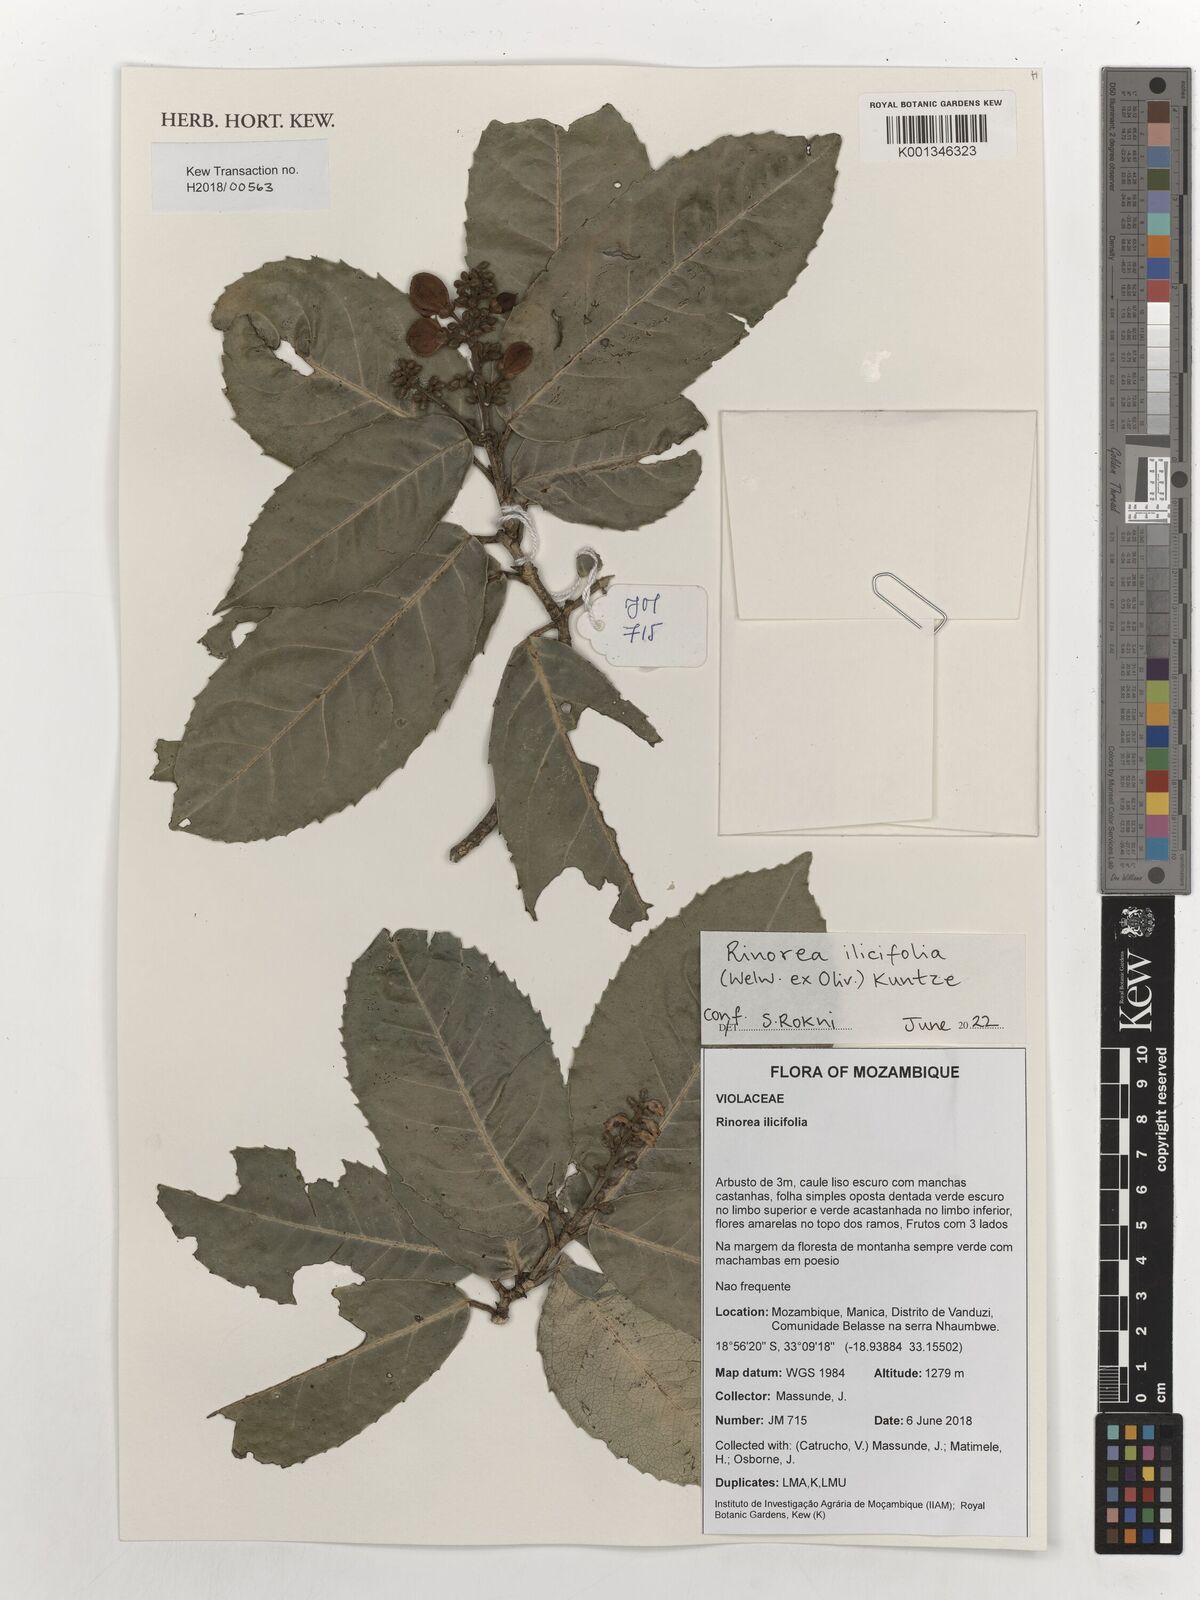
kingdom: Plantae
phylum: Tracheophyta
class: Magnoliopsida
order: Malpighiales
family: Violaceae
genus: Rinorea
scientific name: Rinorea ilicifolia
